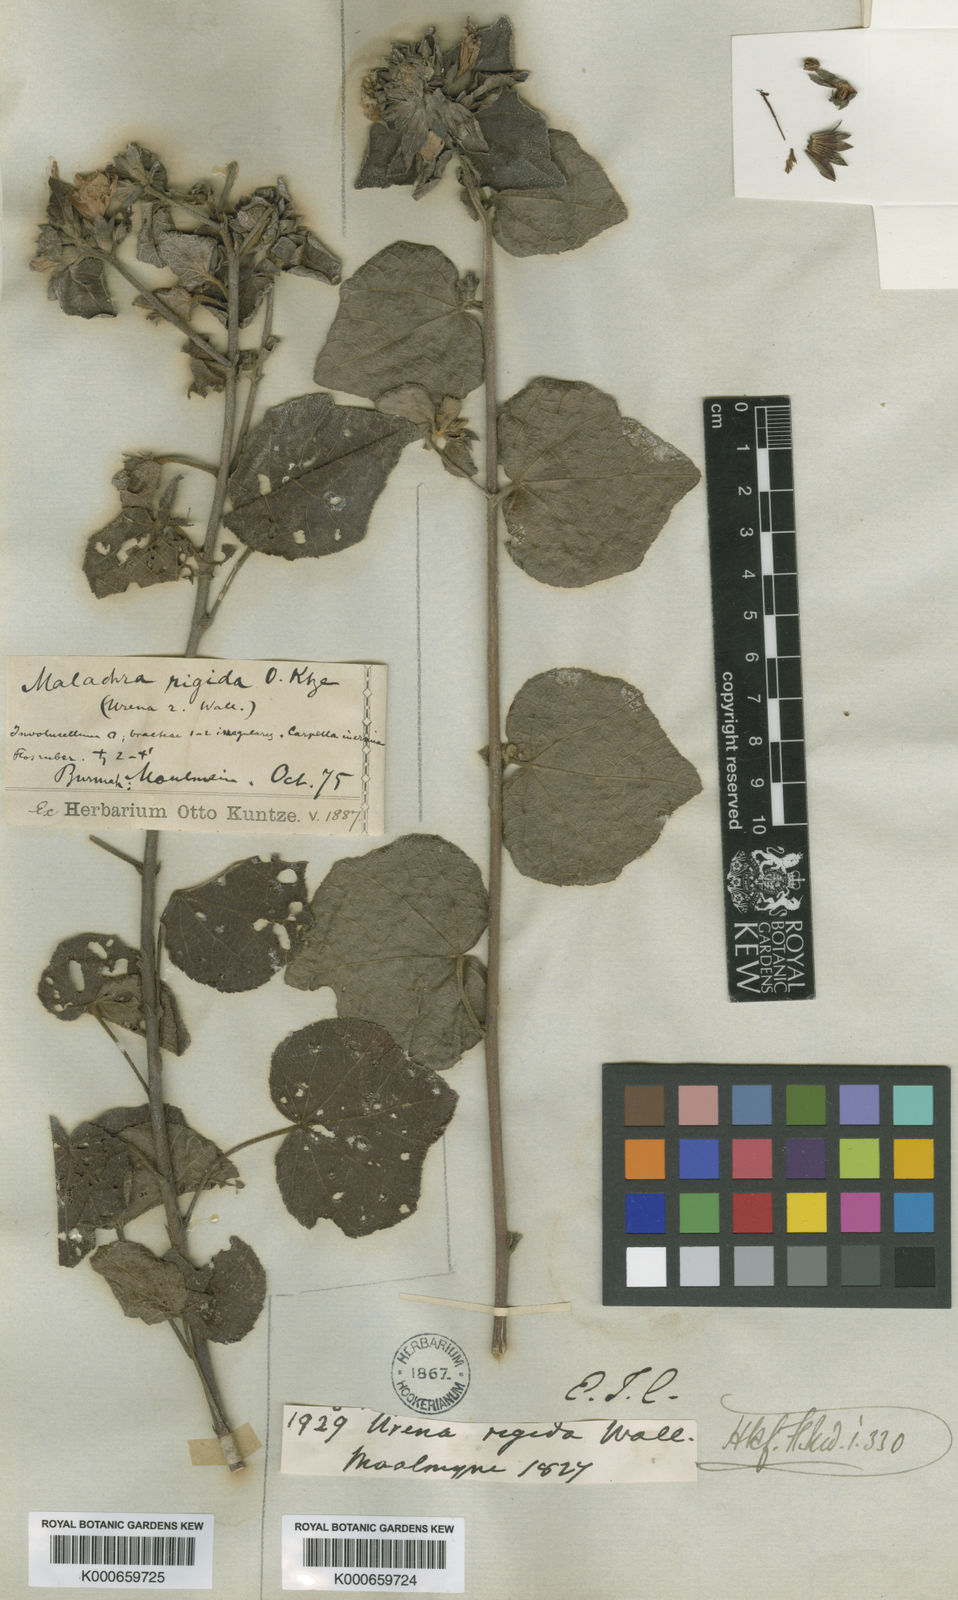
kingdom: Plantae
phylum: Tracheophyta
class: Magnoliopsida
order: Malvales
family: Malvaceae
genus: Urena
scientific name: Urena
